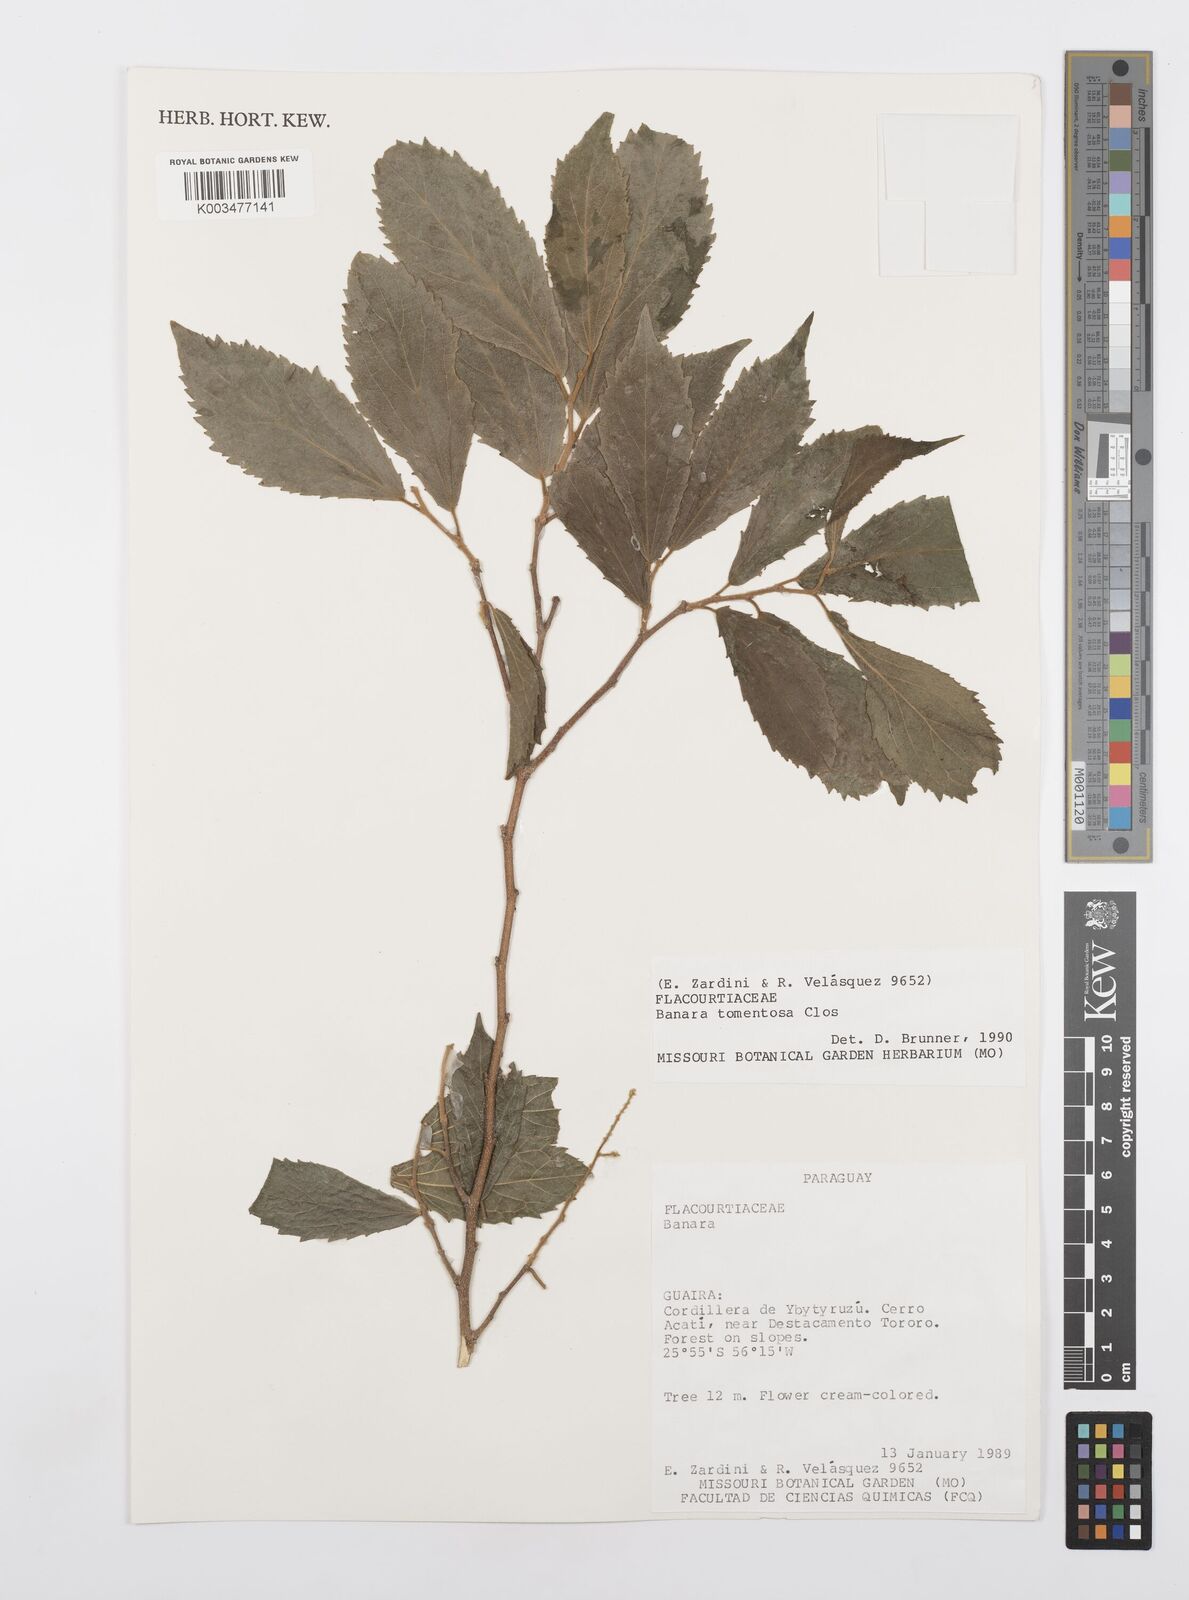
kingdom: Plantae
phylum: Tracheophyta
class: Magnoliopsida
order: Malpighiales
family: Salicaceae
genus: Banara
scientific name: Banara tomentosa
